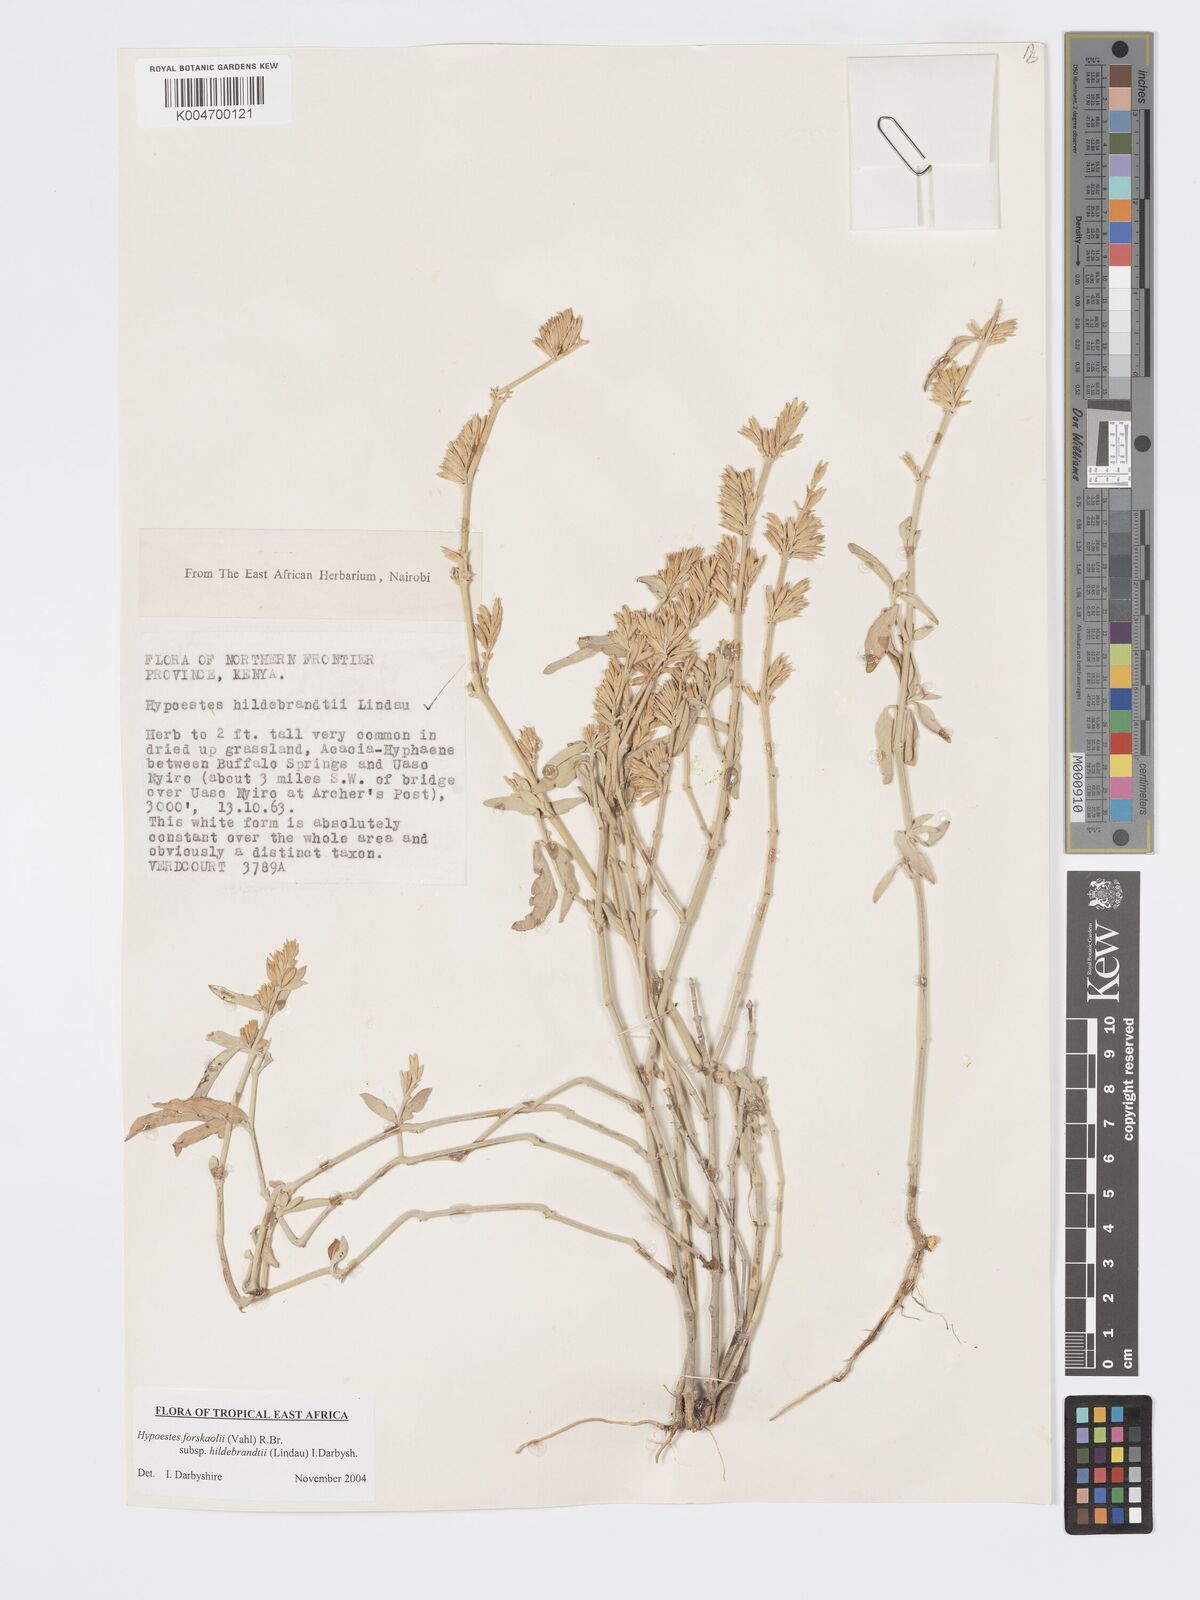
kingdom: Plantae
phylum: Tracheophyta
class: Magnoliopsida
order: Lamiales
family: Acanthaceae
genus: Hypoestes
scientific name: Hypoestes forskaolii
